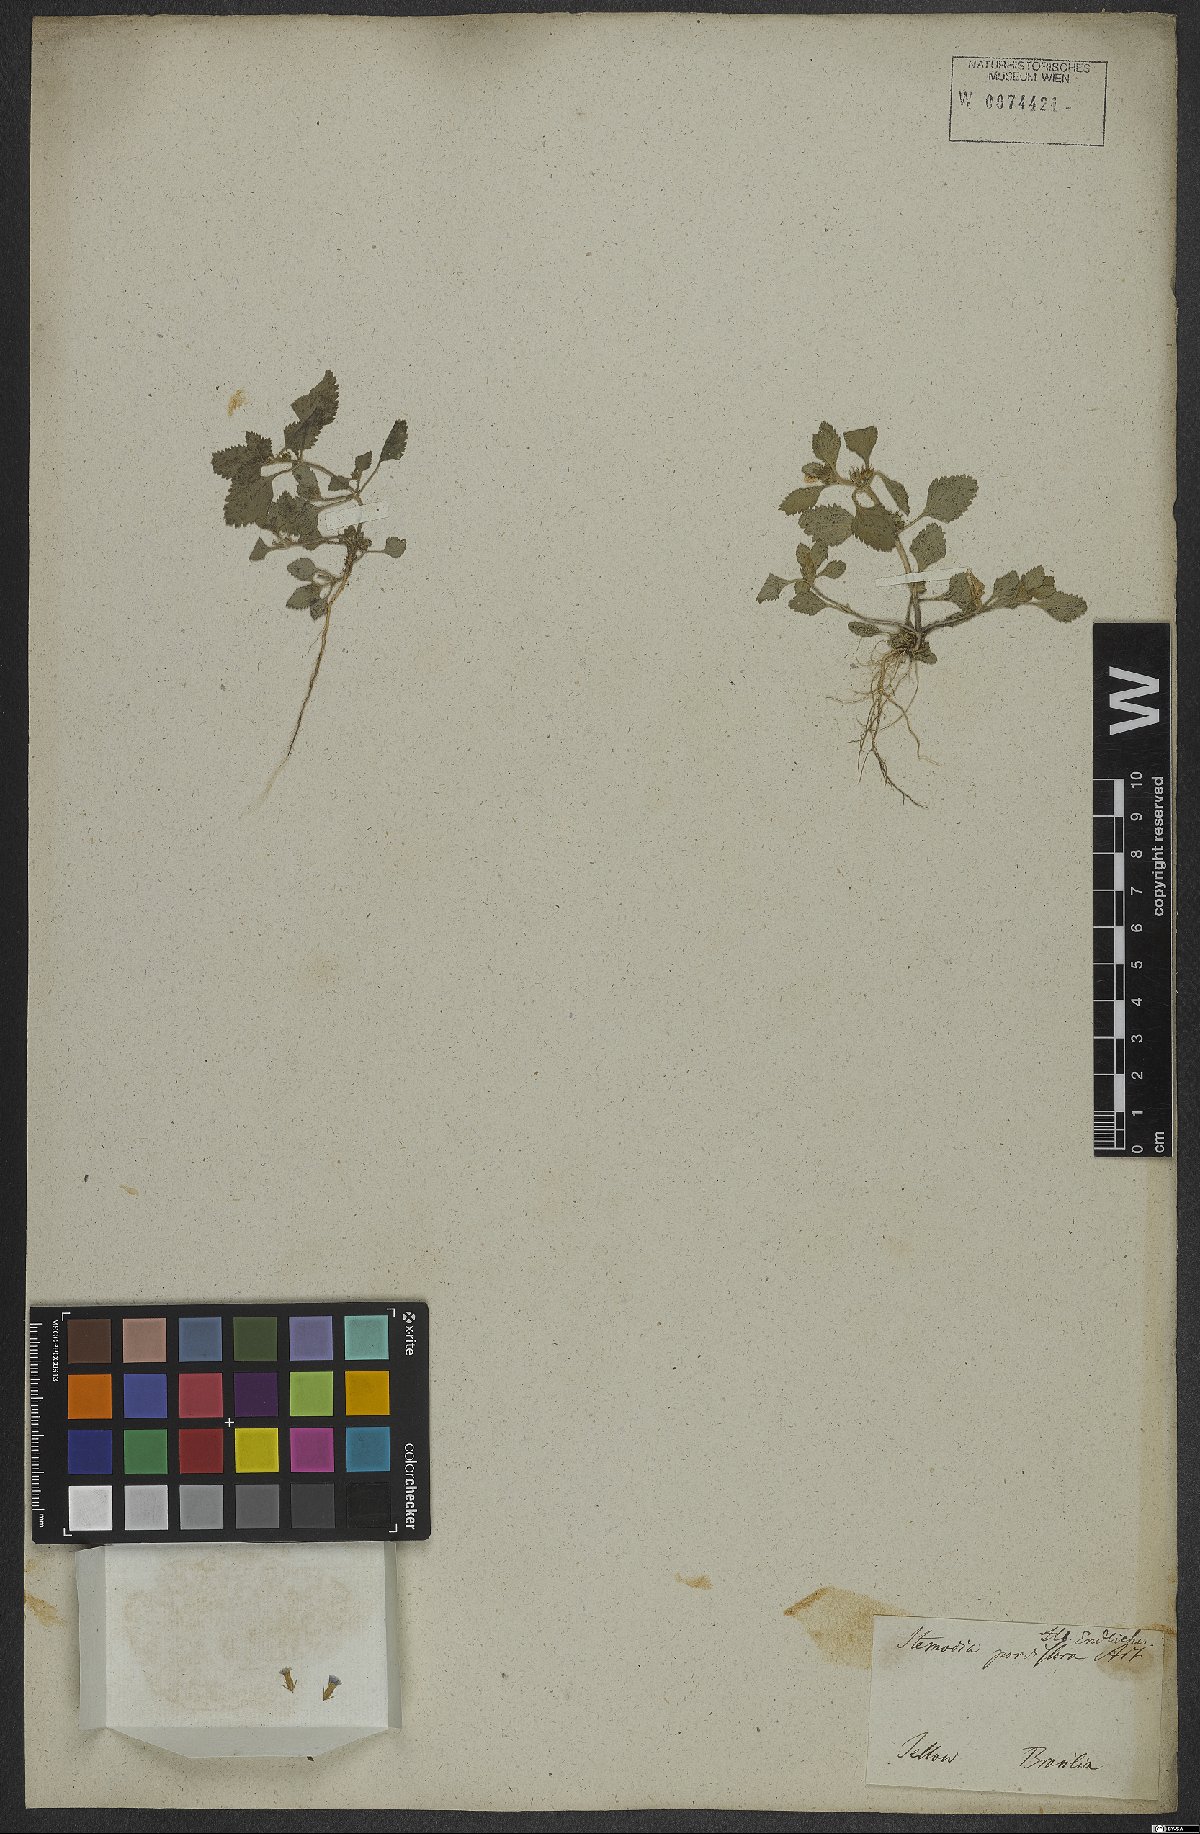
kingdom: Plantae
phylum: Tracheophyta
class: Magnoliopsida
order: Lamiales
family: Plantaginaceae
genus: Stemodia
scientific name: Stemodia verticillata
